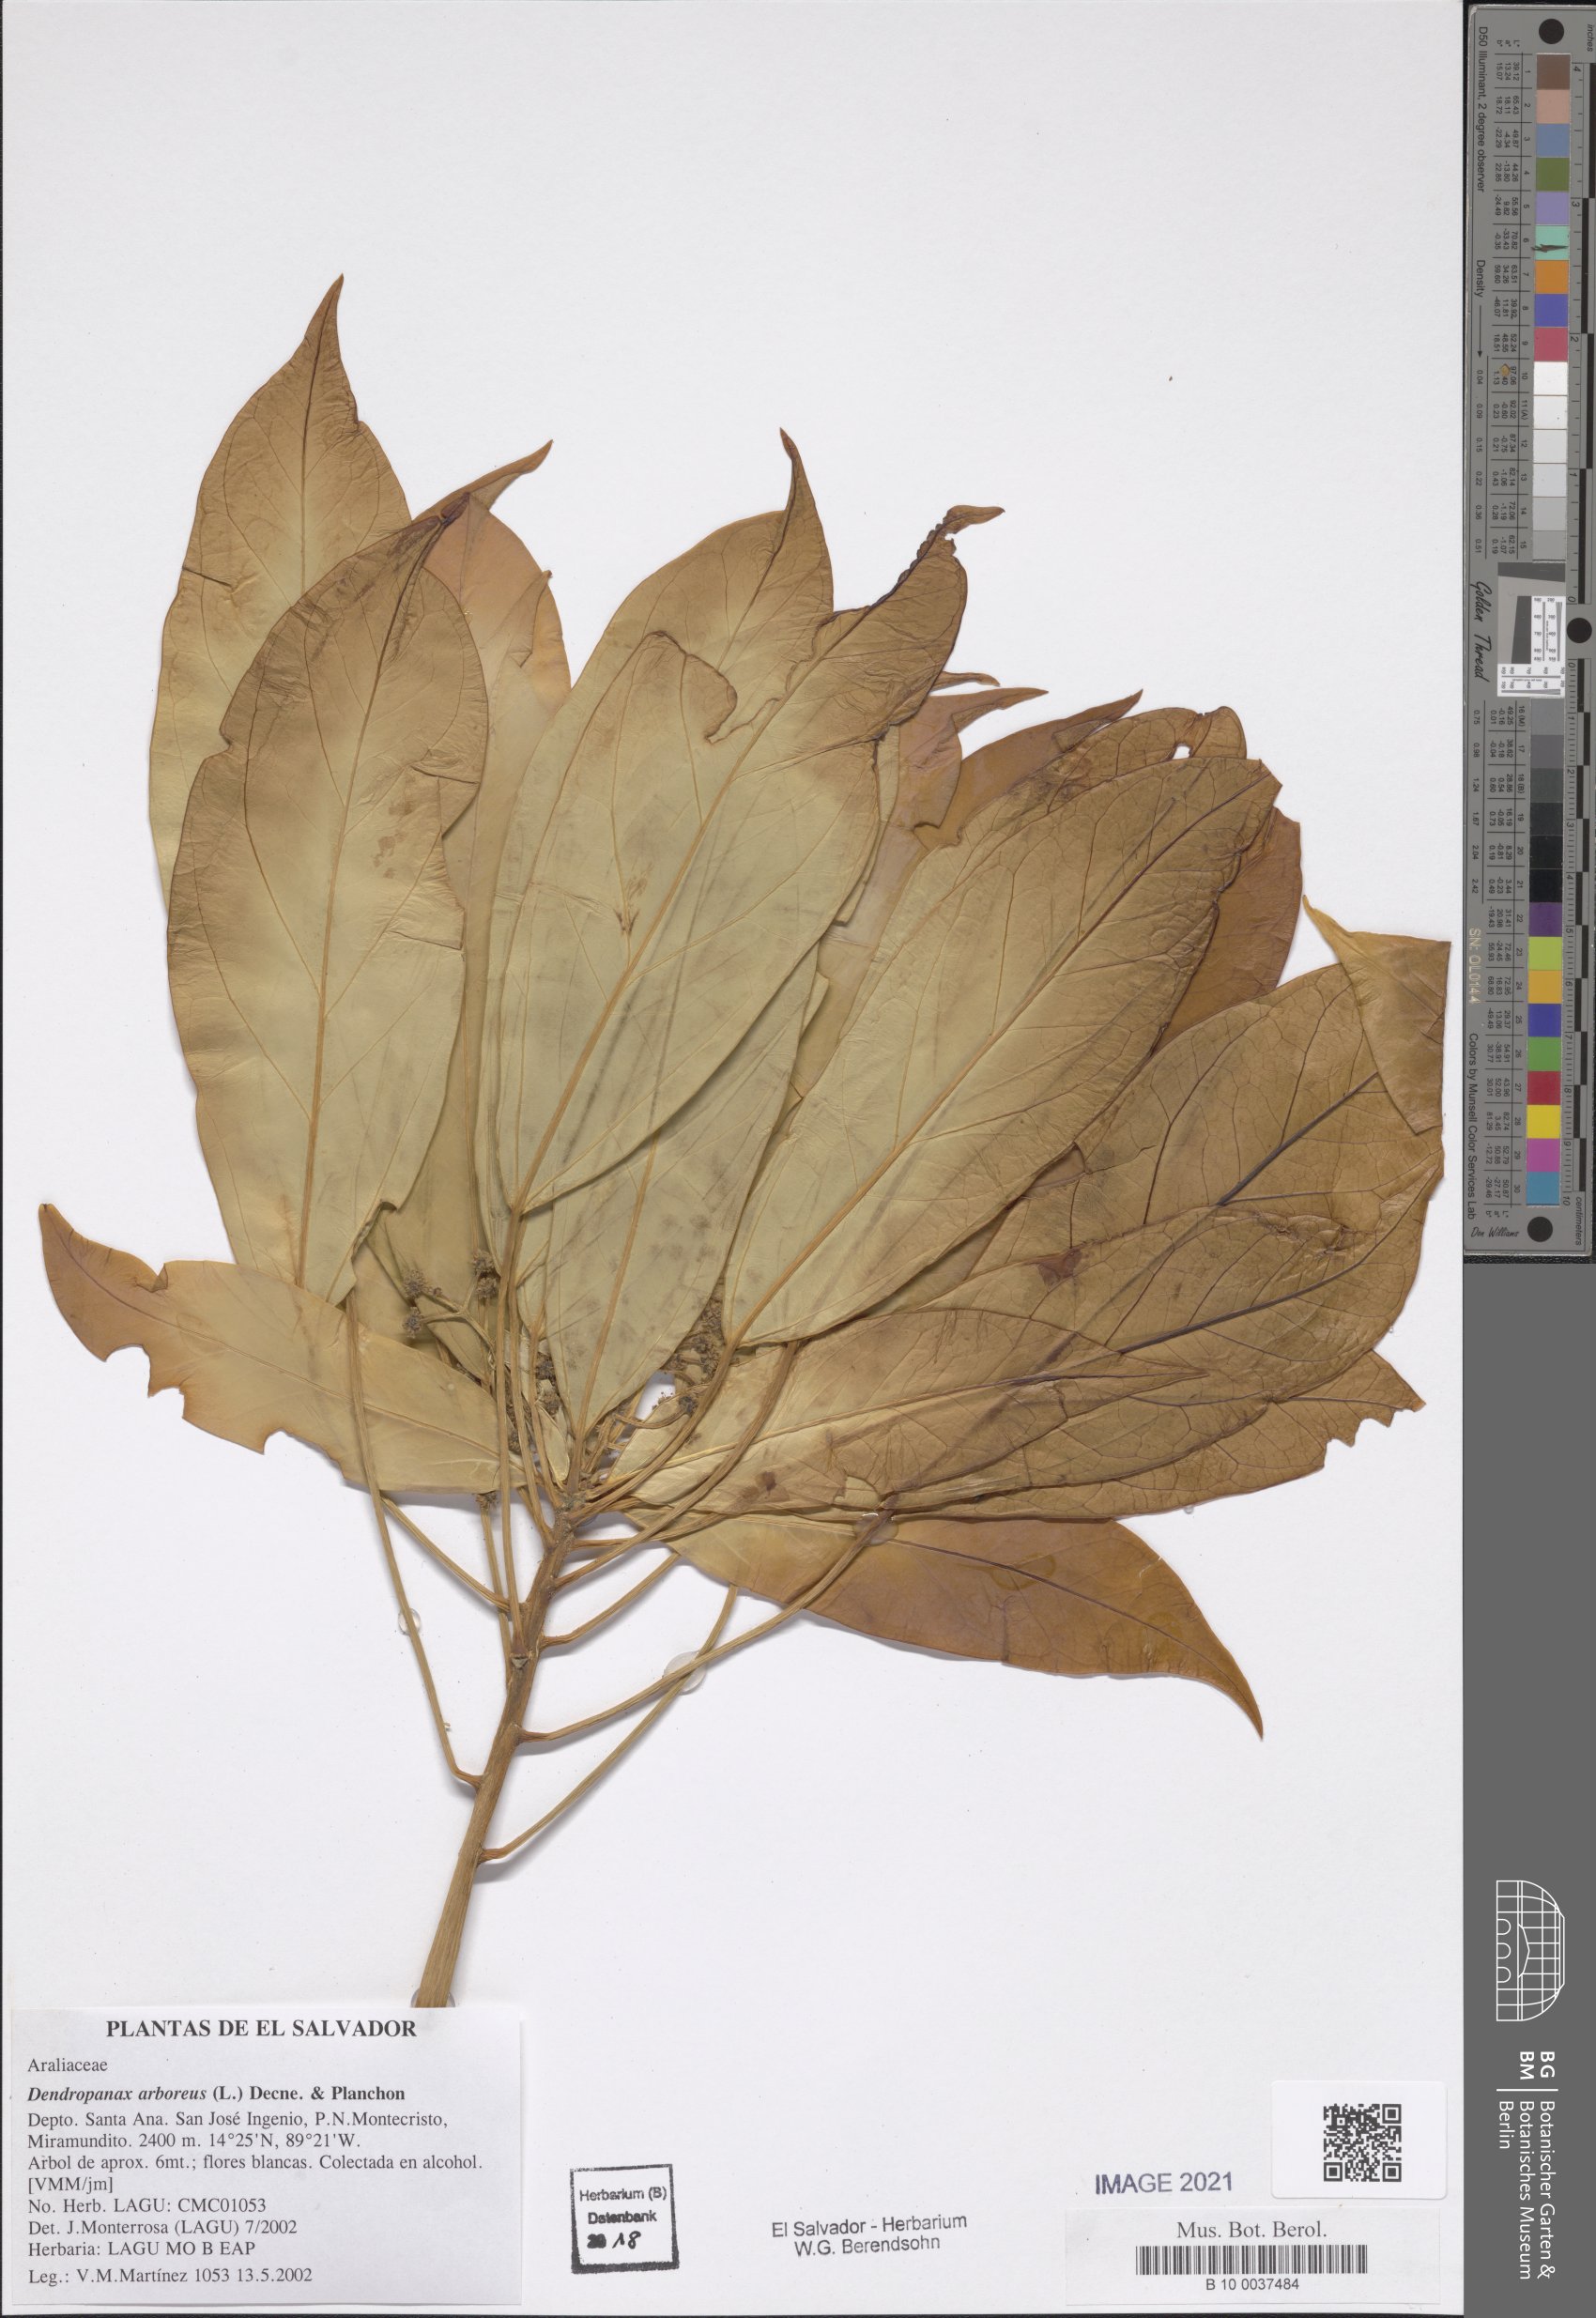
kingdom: Plantae
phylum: Tracheophyta
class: Magnoliopsida
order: Apiales
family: Araliaceae
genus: Oreopanax
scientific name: Oreopanax capitatus
